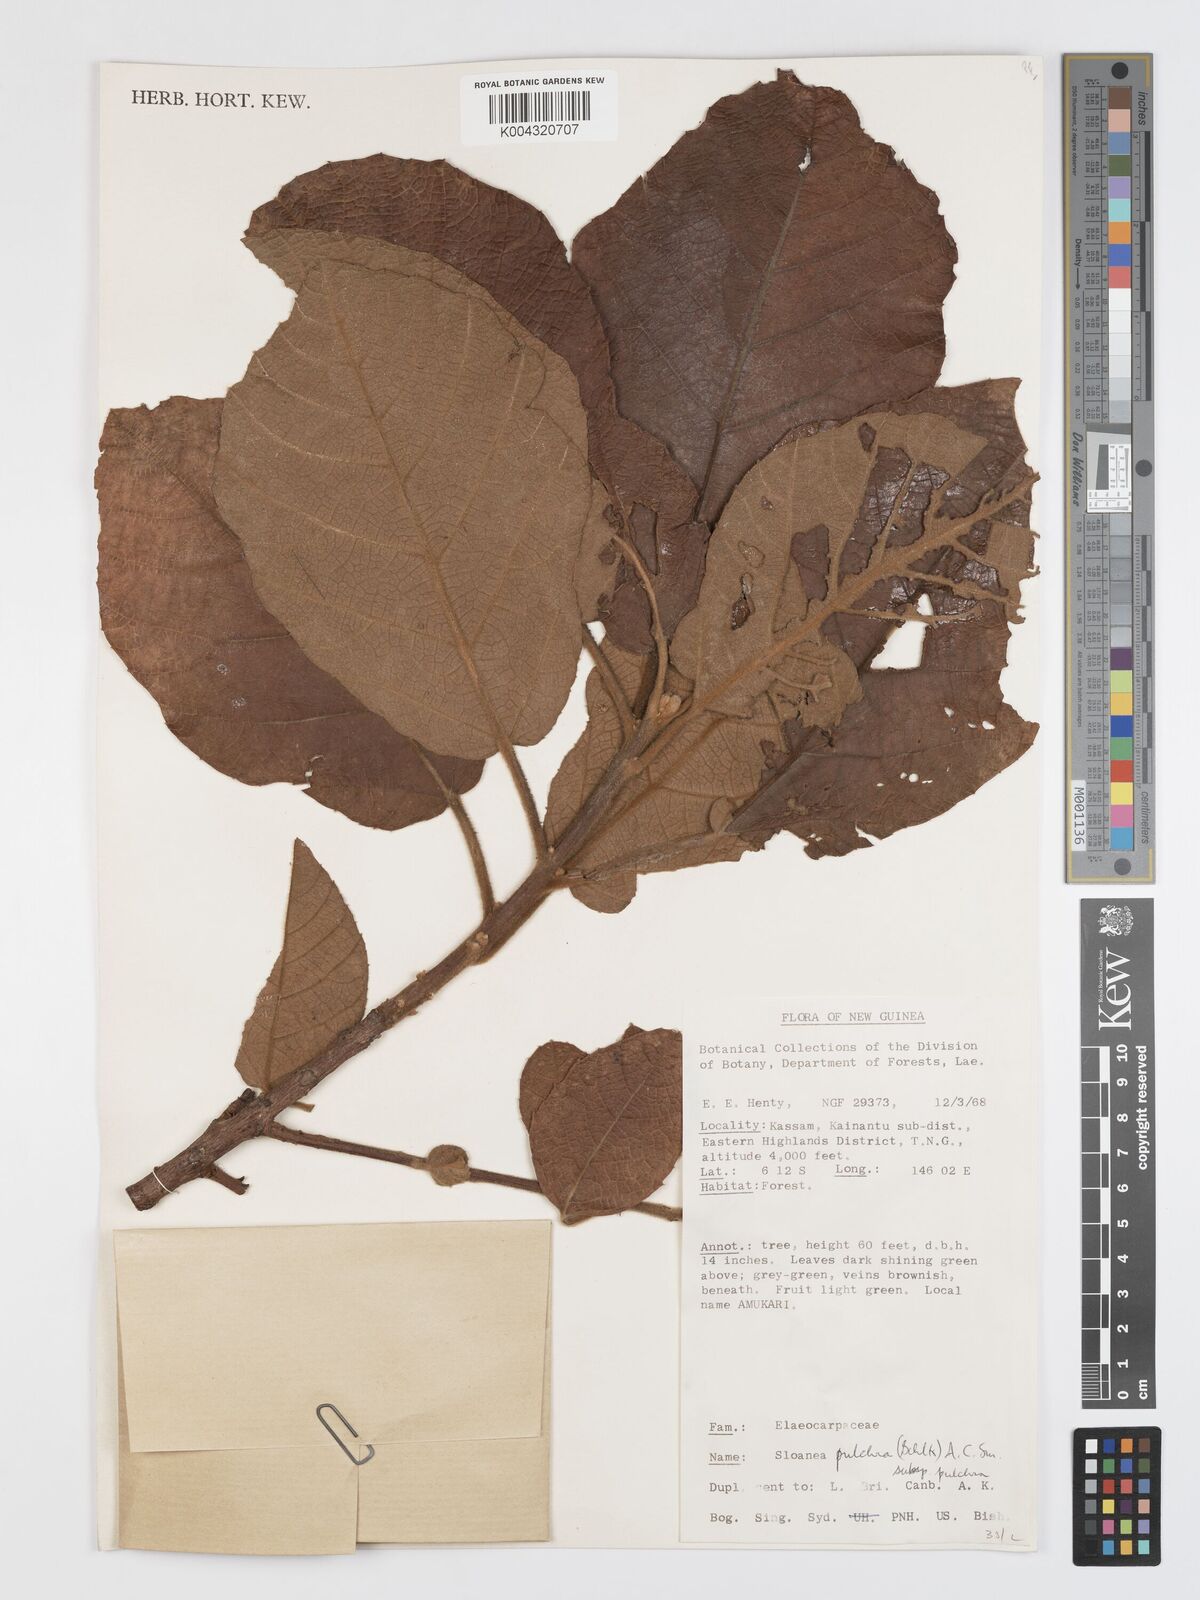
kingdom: Plantae
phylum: Tracheophyta
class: Magnoliopsida
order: Oxalidales
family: Elaeocarpaceae
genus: Sloanea
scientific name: Sloanea pulchra
